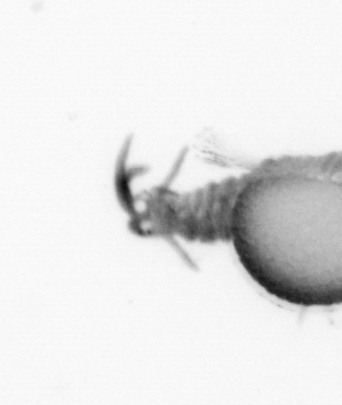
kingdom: Animalia
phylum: Annelida
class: Polychaeta
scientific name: Polychaeta
